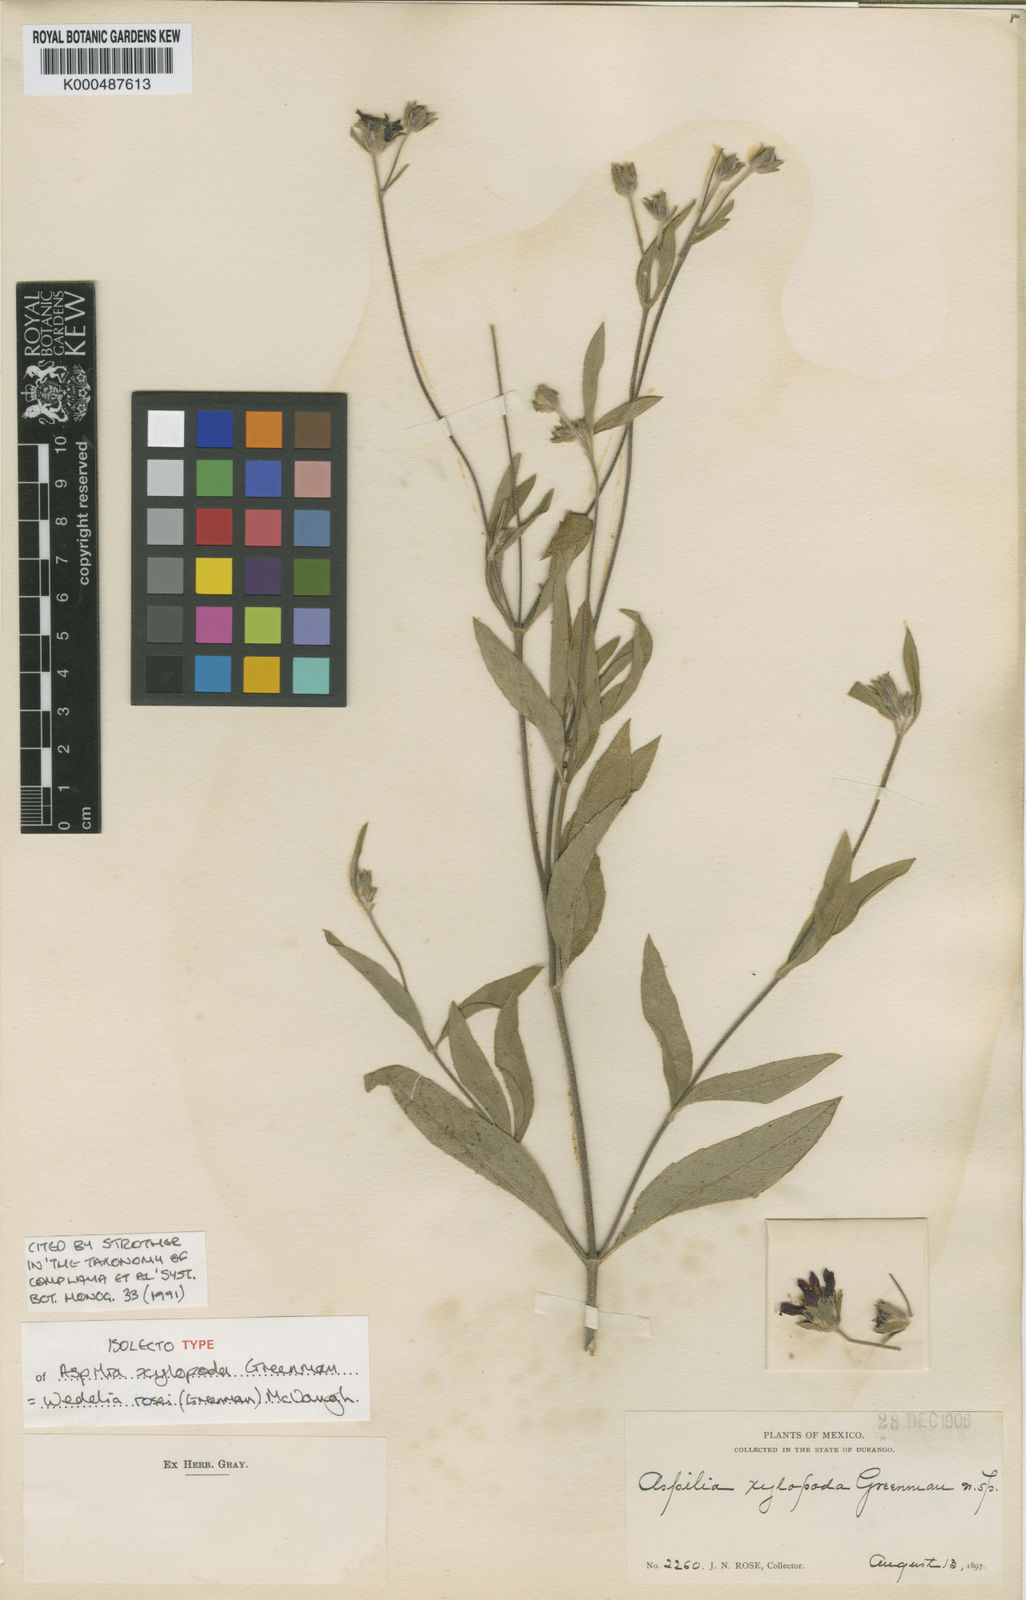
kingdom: Plantae
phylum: Tracheophyta
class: Magnoliopsida
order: Asterales
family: Asteraceae
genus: Wedelia
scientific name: Wedelia rosei
